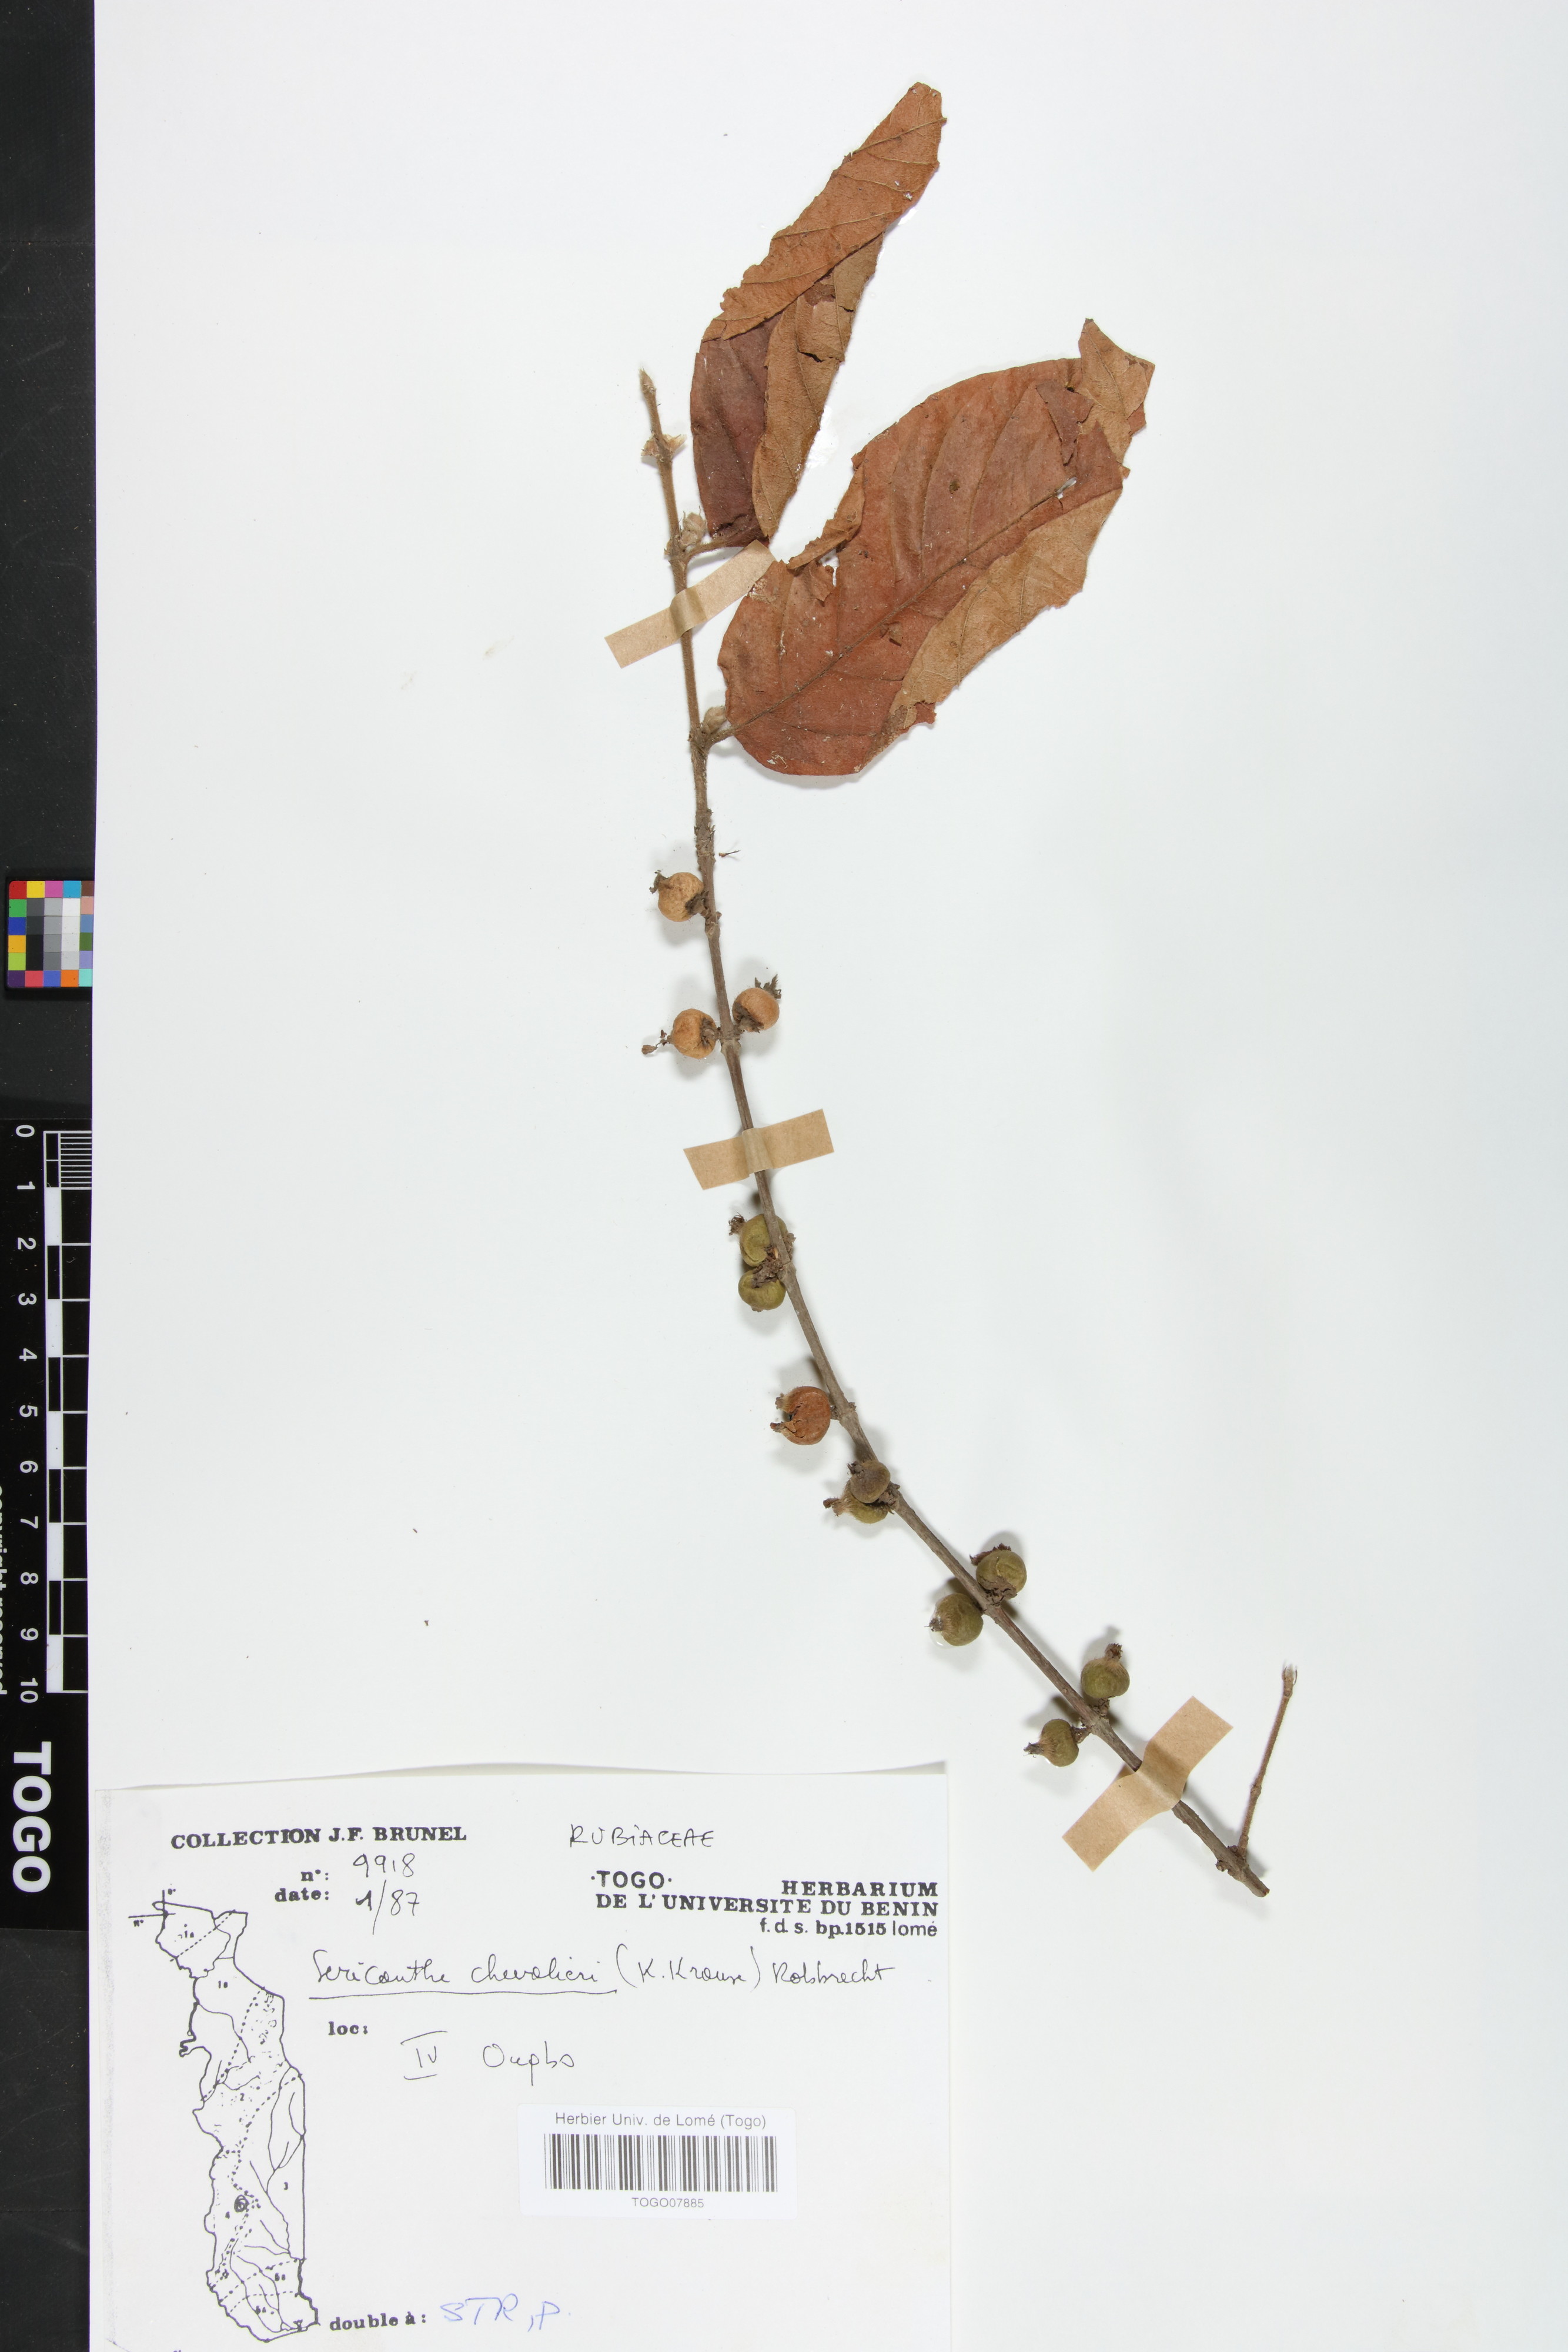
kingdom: Plantae
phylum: Tracheophyta
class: Magnoliopsida
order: Gentianales
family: Rubiaceae
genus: Sericanthe
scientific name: Sericanthe chevalieri
